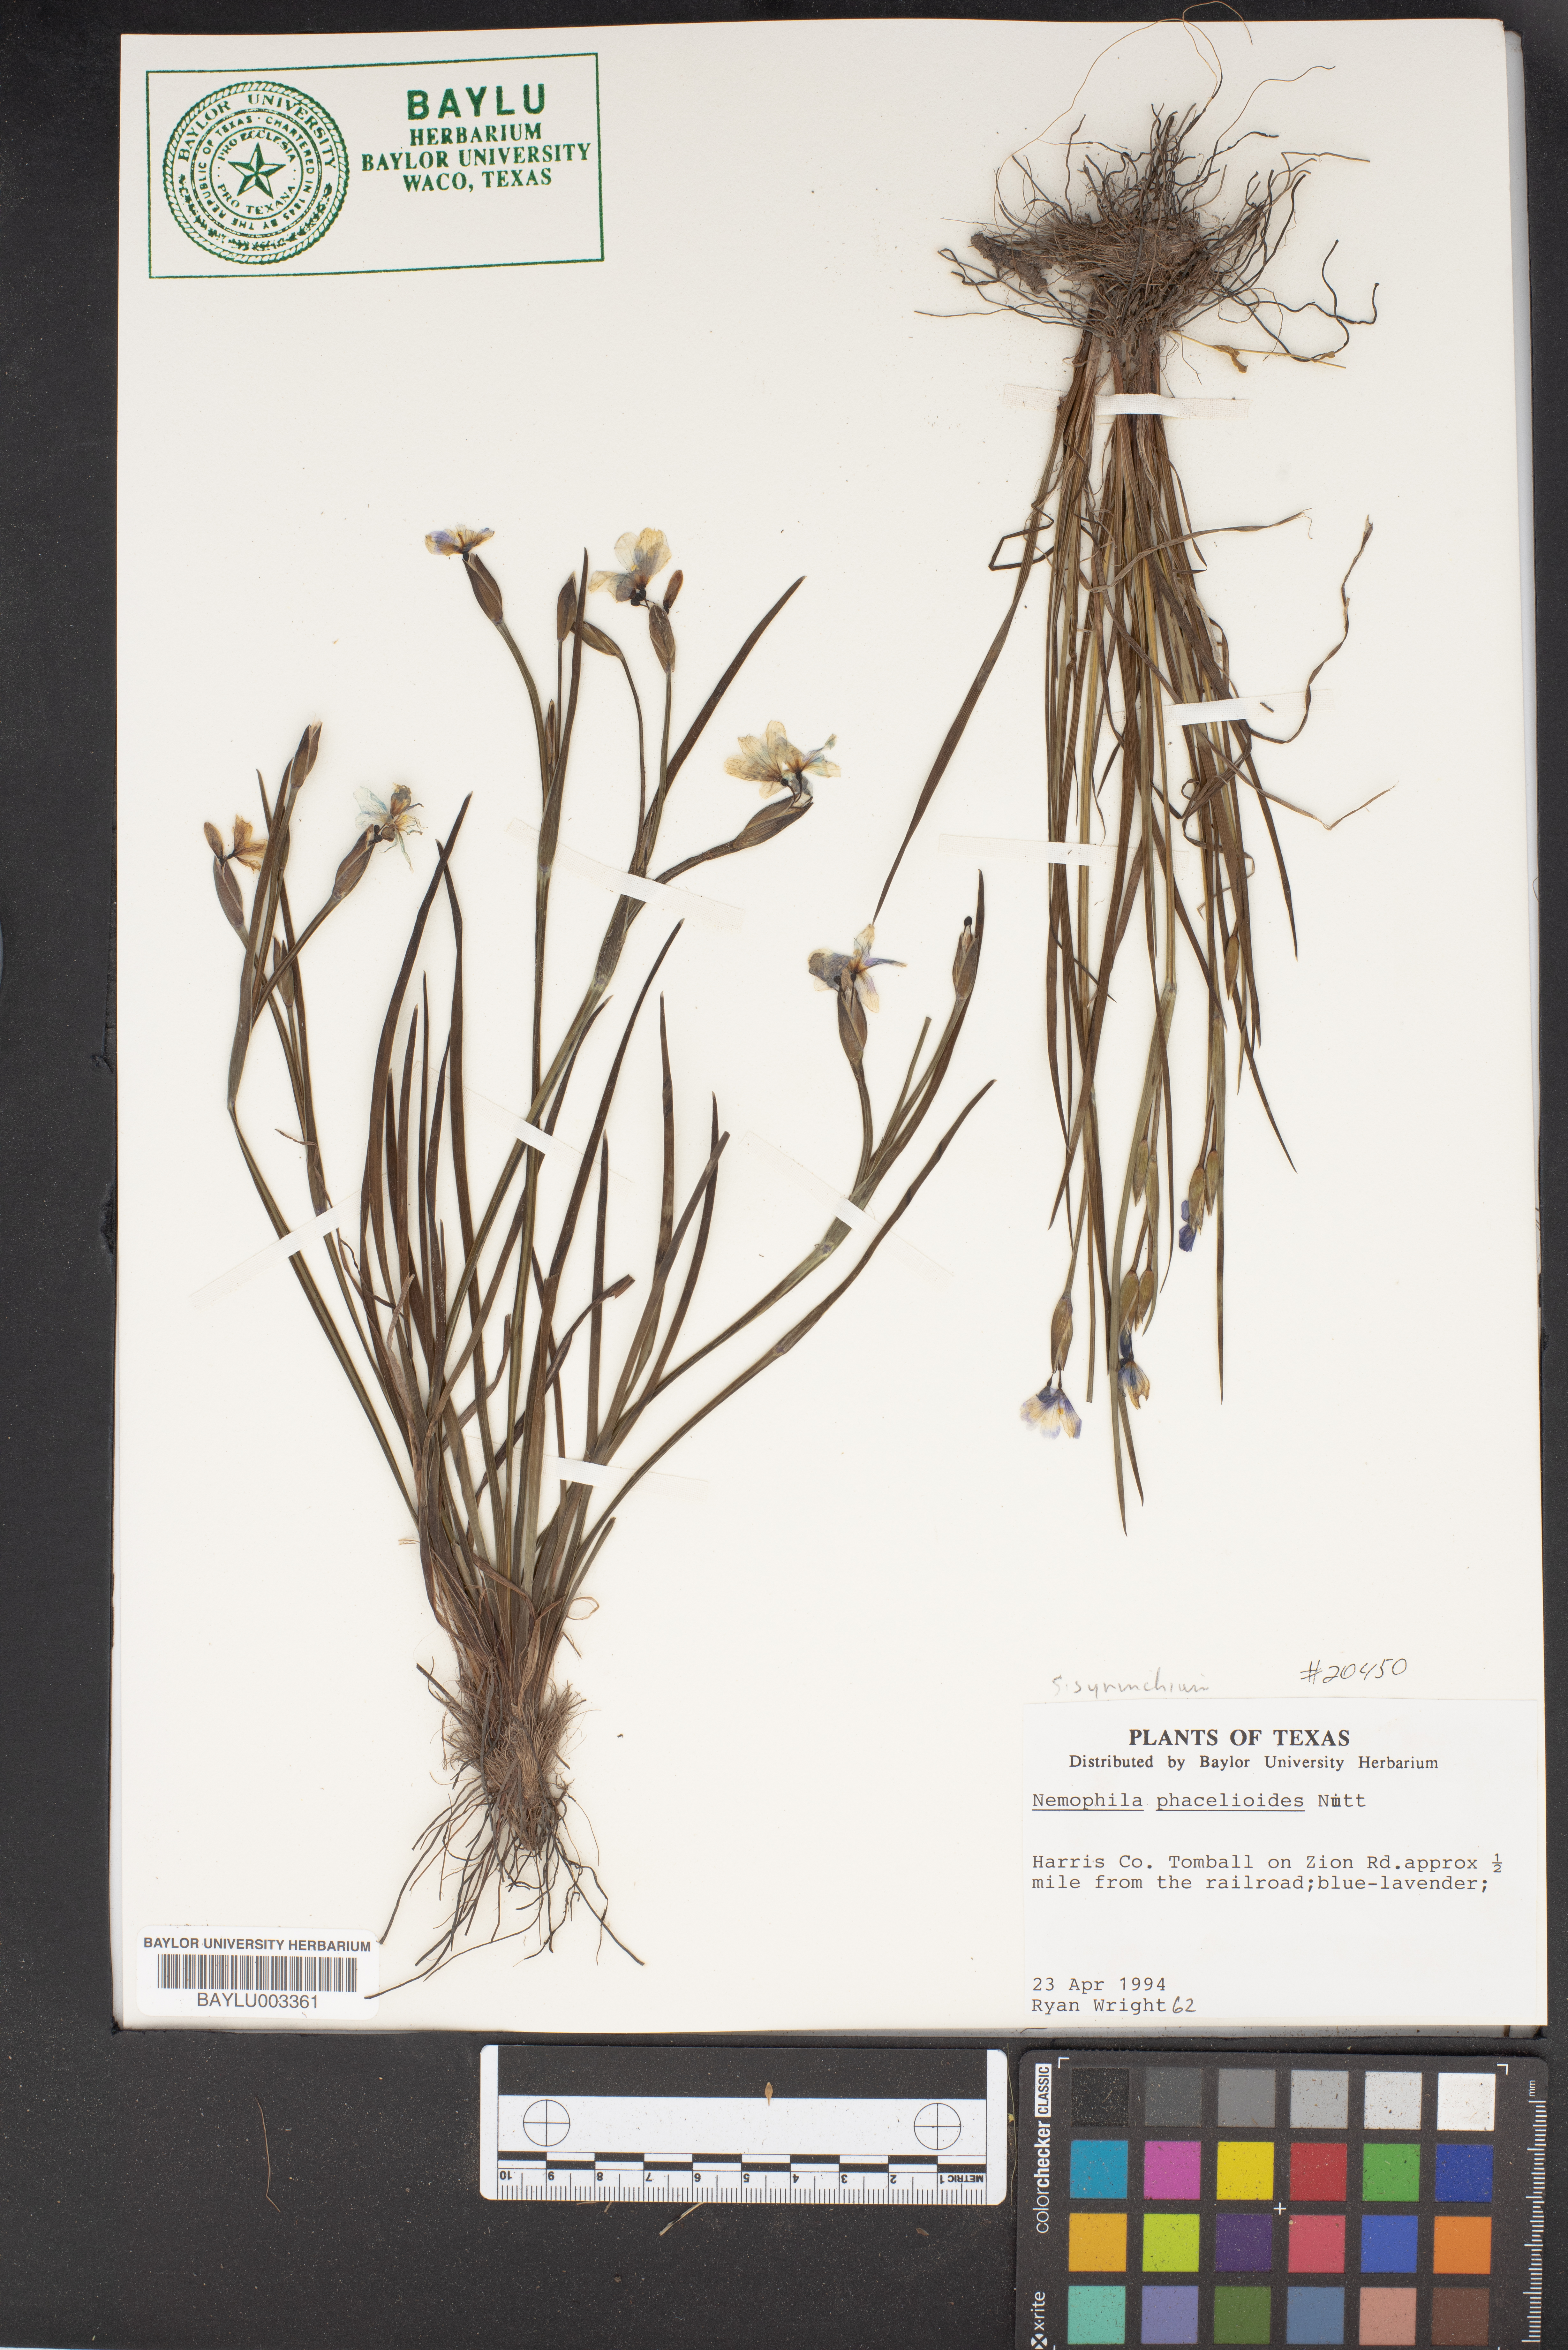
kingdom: Plantae
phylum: Tracheophyta
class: Magnoliopsida
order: Boraginales
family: Hydrophyllaceae
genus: Nemophila
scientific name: Nemophila phacelioides
